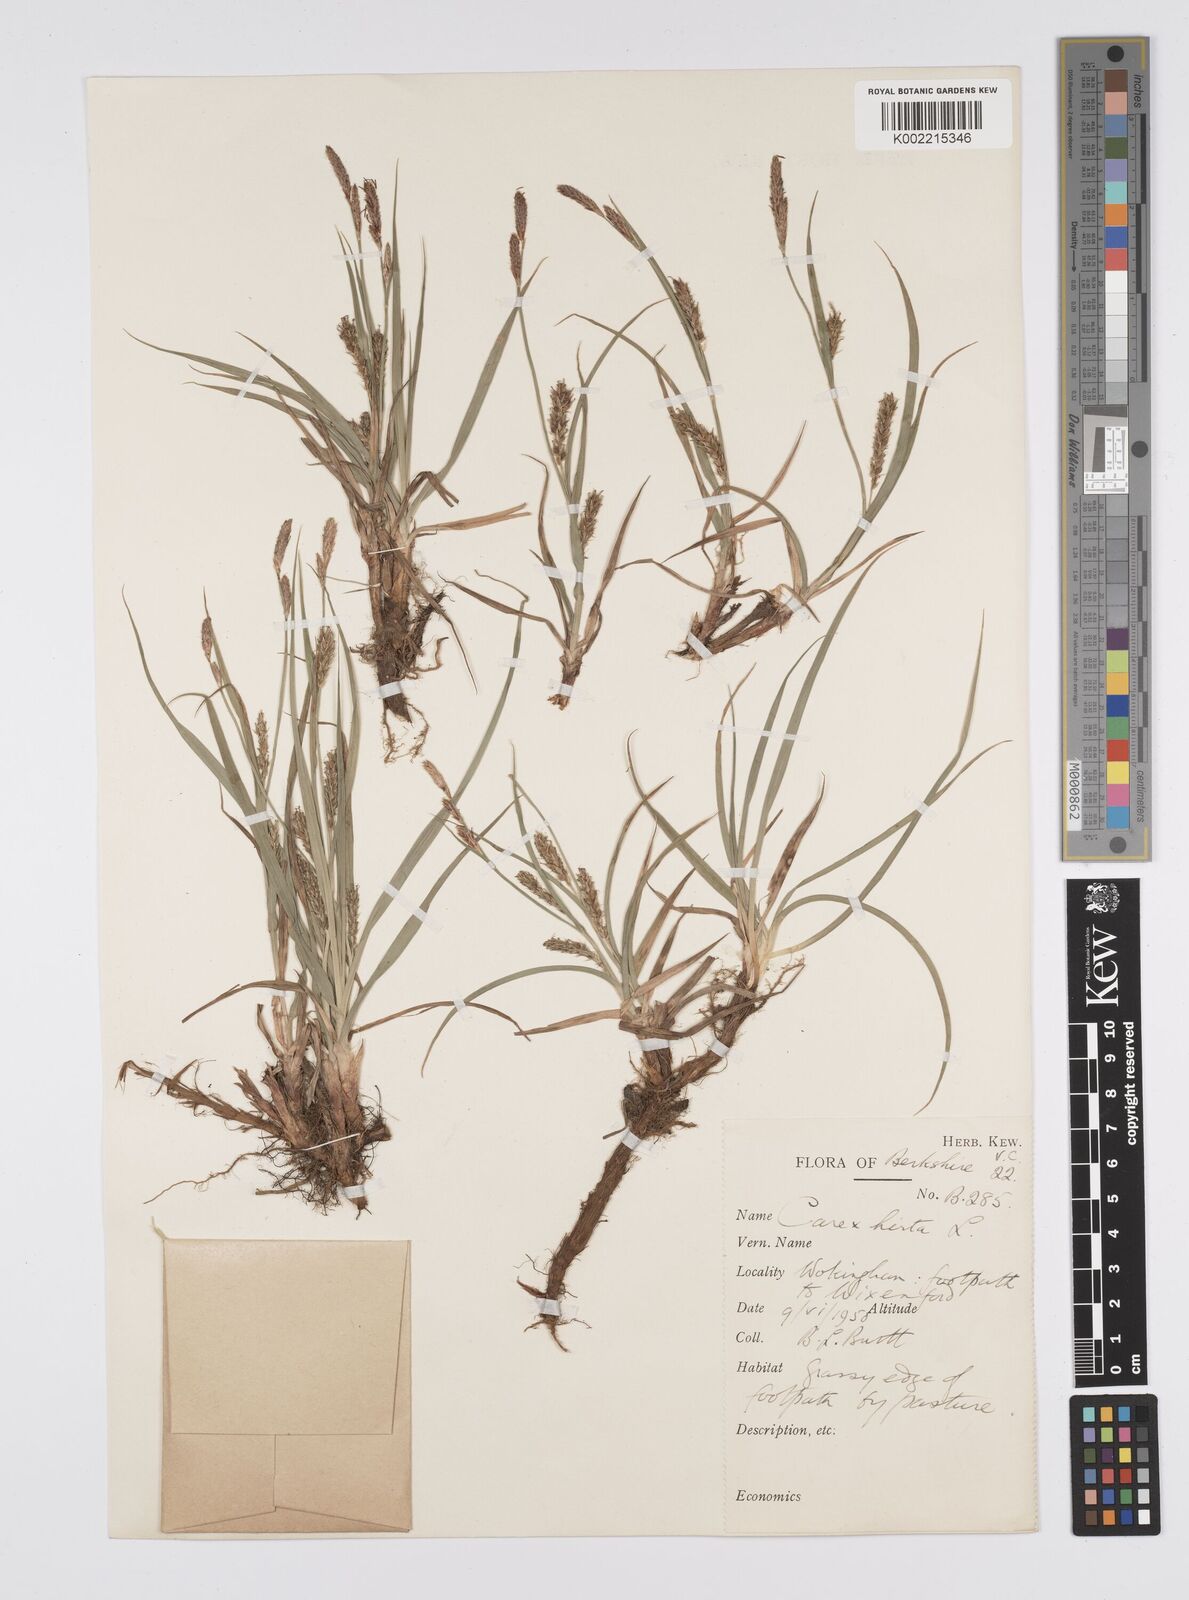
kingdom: Plantae
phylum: Tracheophyta
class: Liliopsida
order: Poales
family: Cyperaceae
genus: Carex
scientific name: Carex hirta
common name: Hairy sedge
